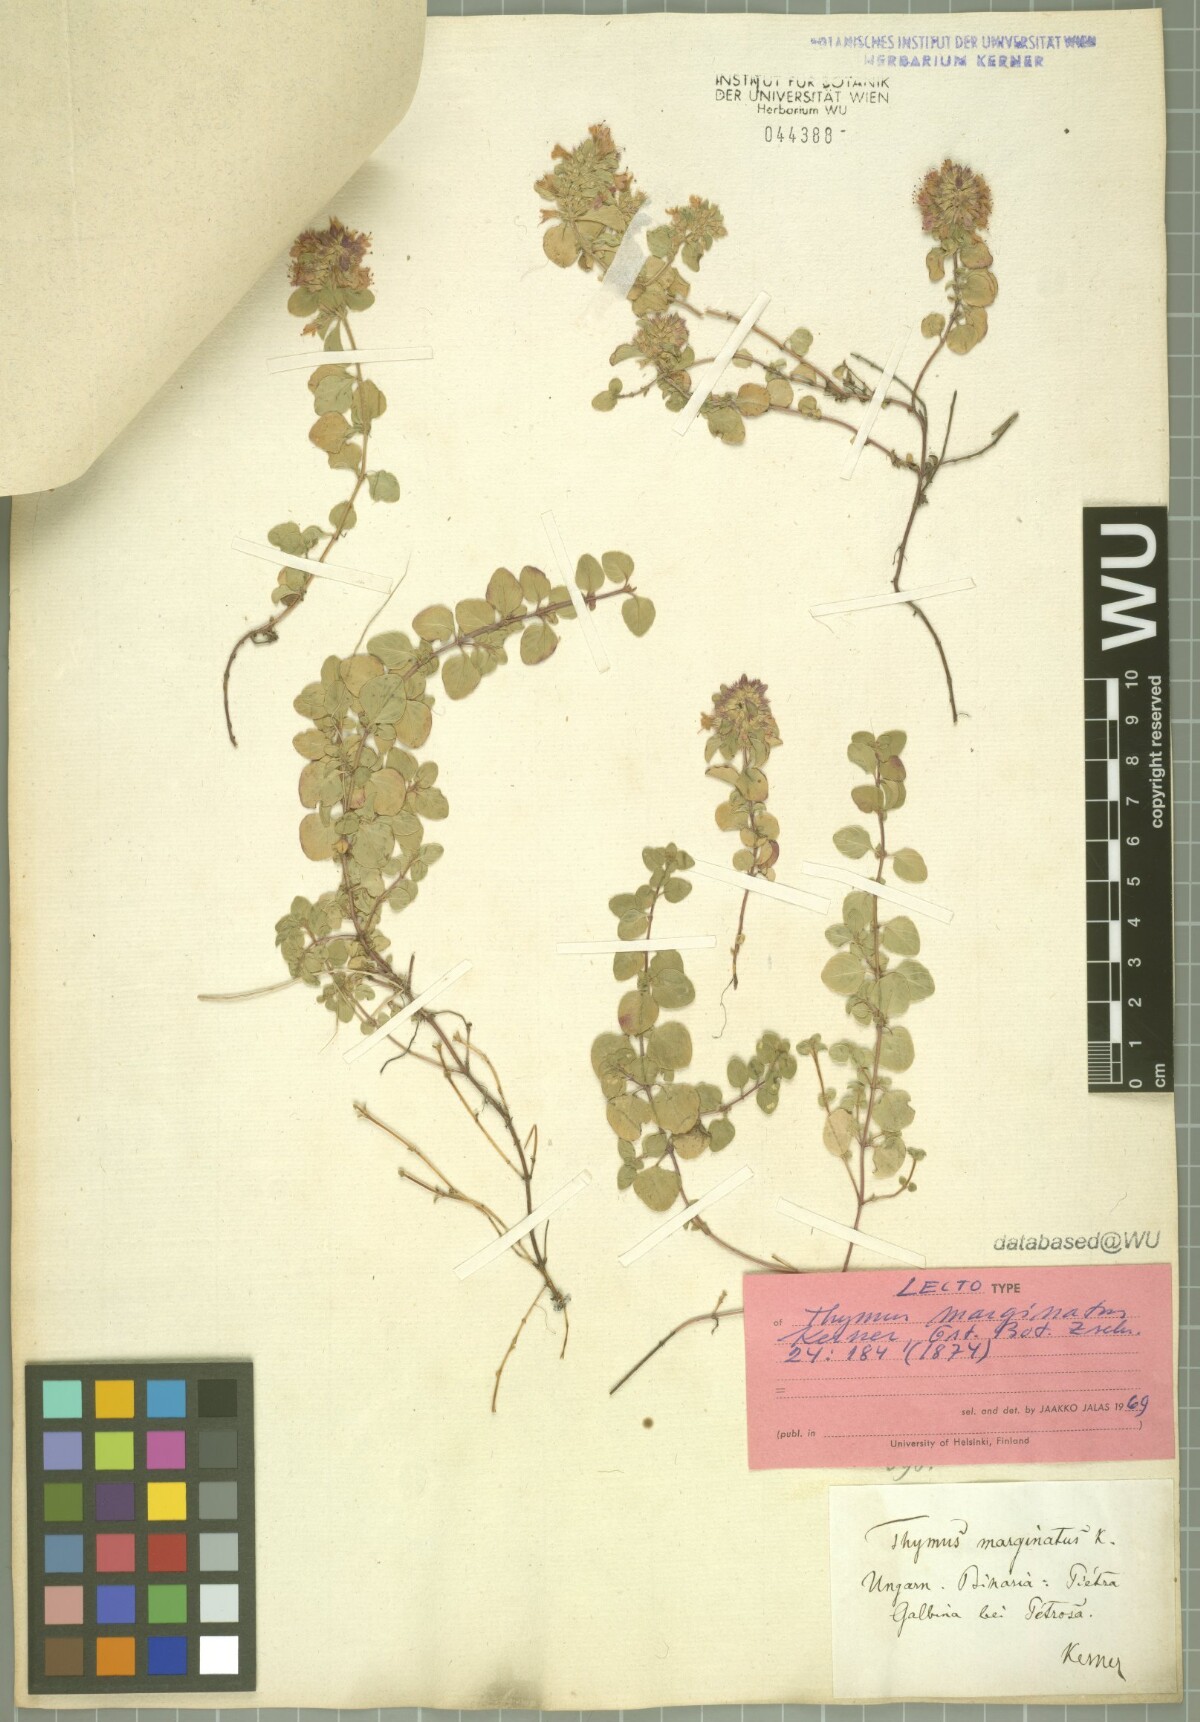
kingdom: Plantae
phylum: Tracheophyta
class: Magnoliopsida
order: Lamiales
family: Lamiaceae
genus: Thymus
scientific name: Thymus bihoriensis
